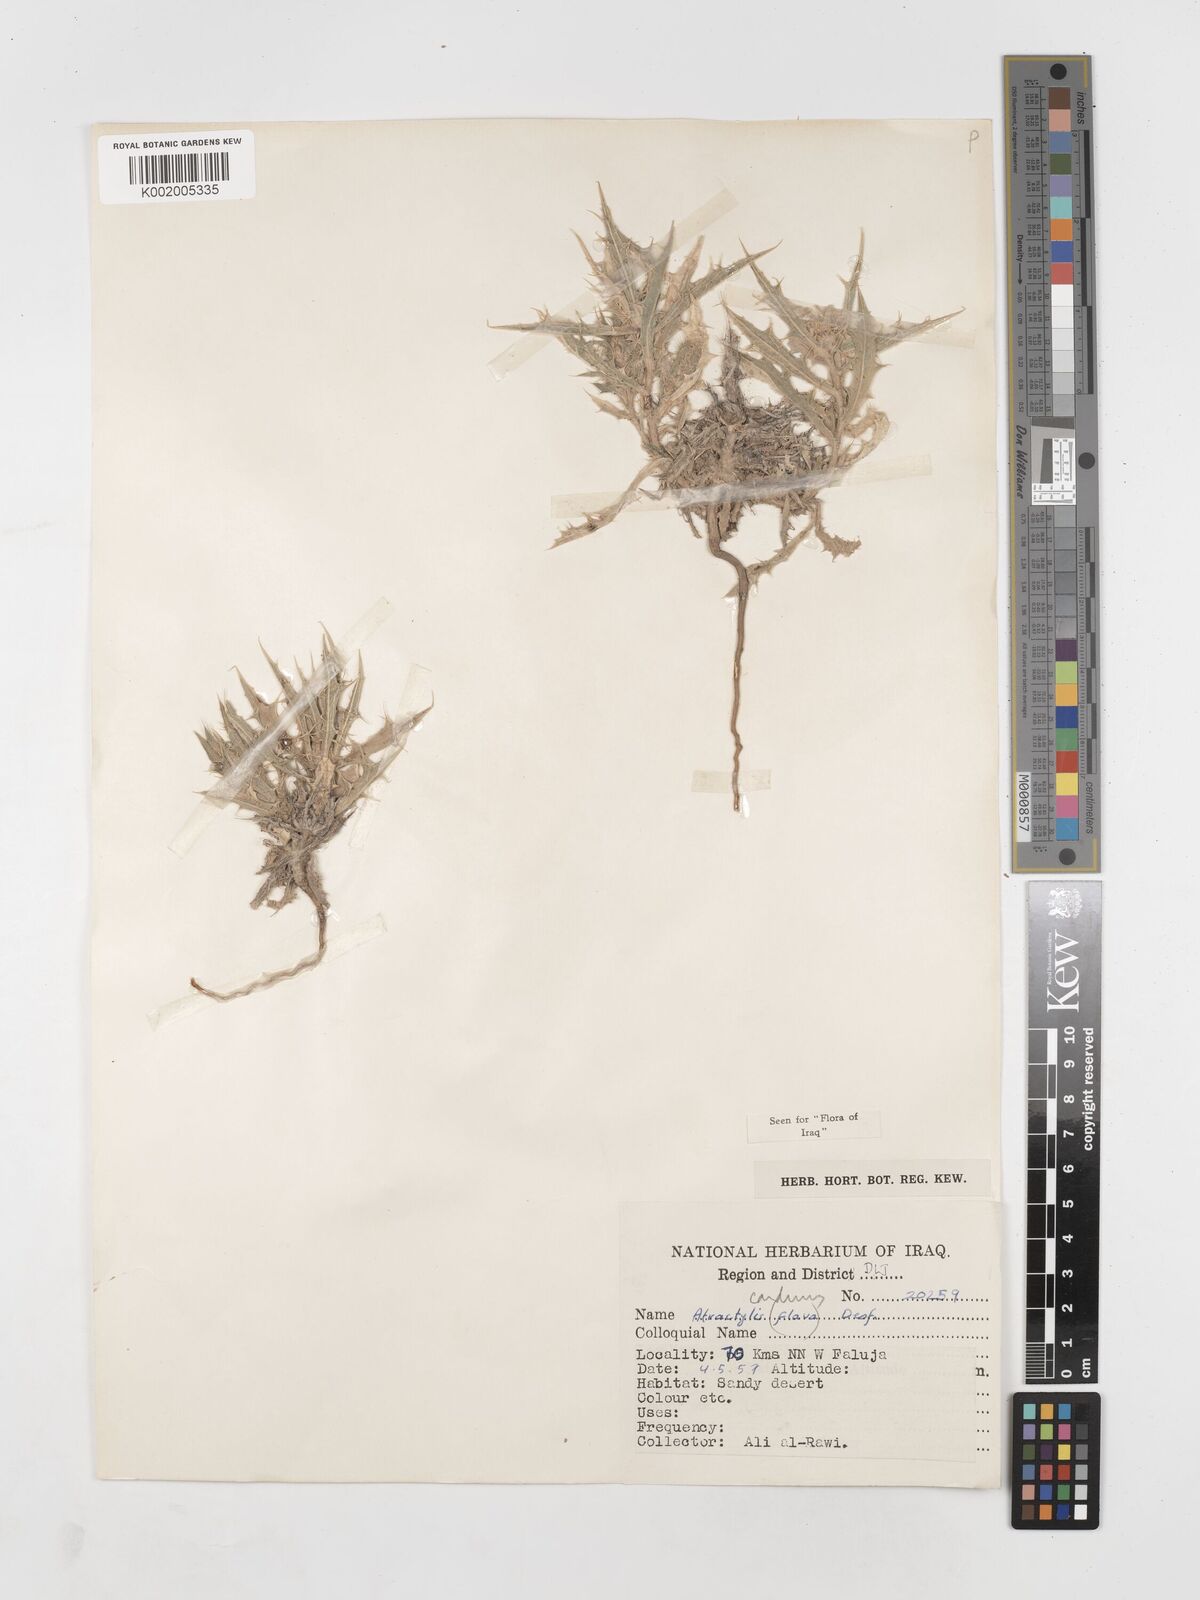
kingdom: Plantae
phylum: Tracheophyta
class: Magnoliopsida
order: Asterales
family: Asteraceae
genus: Atractylis
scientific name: Atractylis carduus
